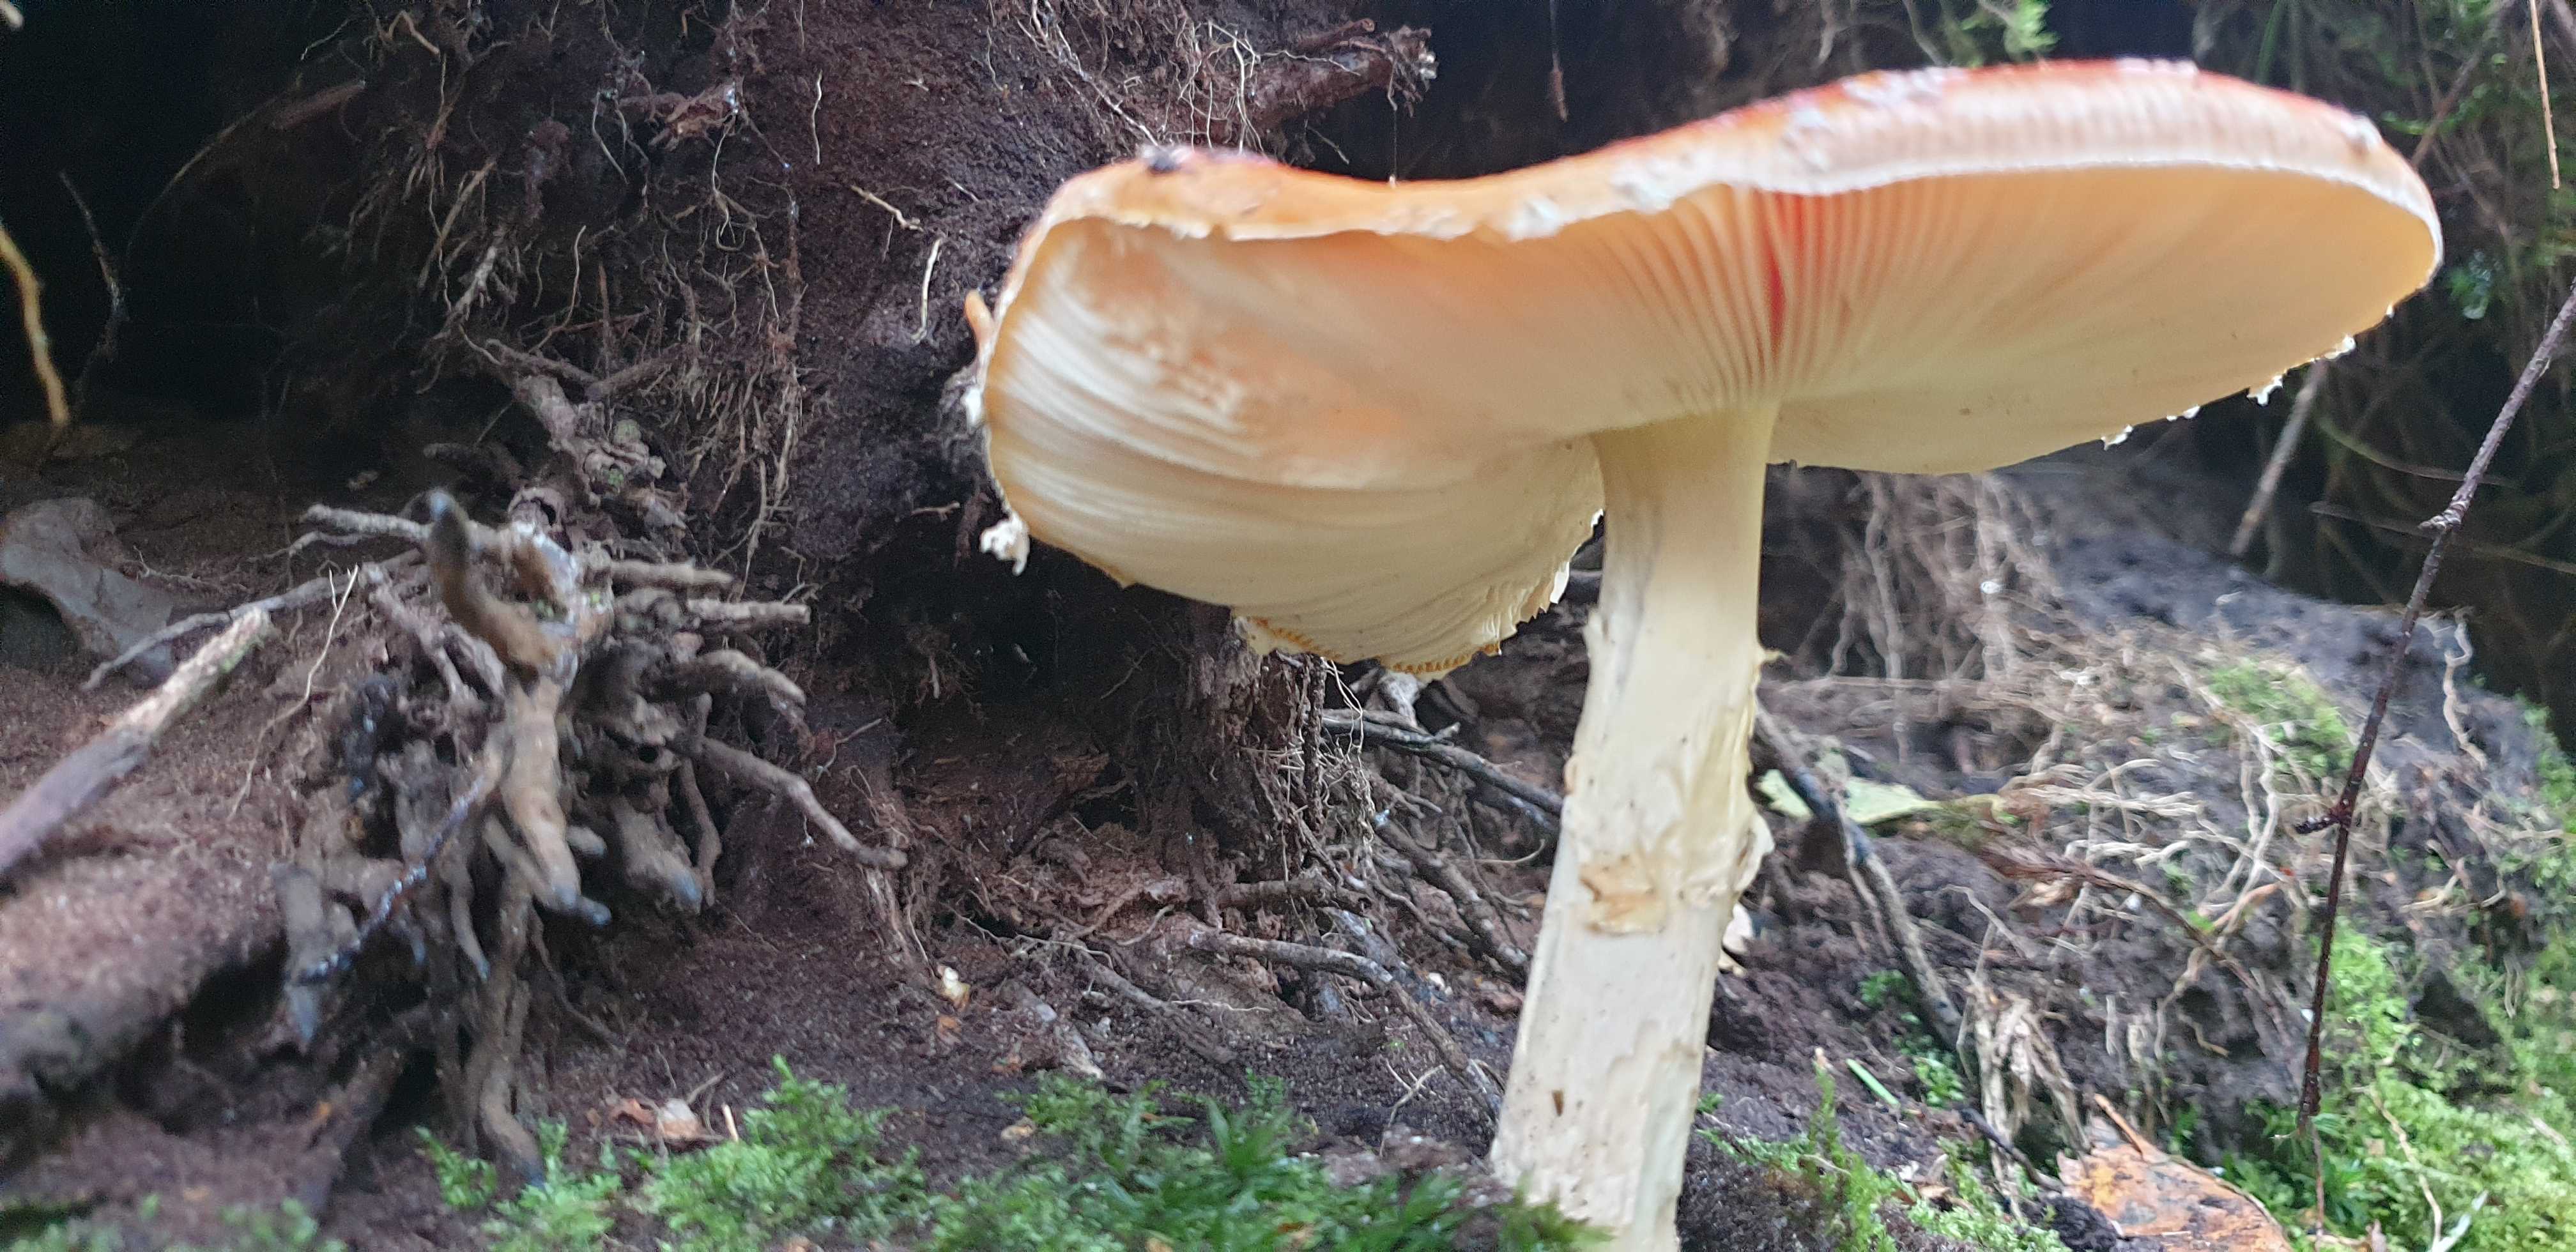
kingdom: Fungi
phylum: Basidiomycota
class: Agaricomycetes
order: Agaricales
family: Amanitaceae
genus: Amanita
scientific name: Amanita muscaria
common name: rød fluesvamp
